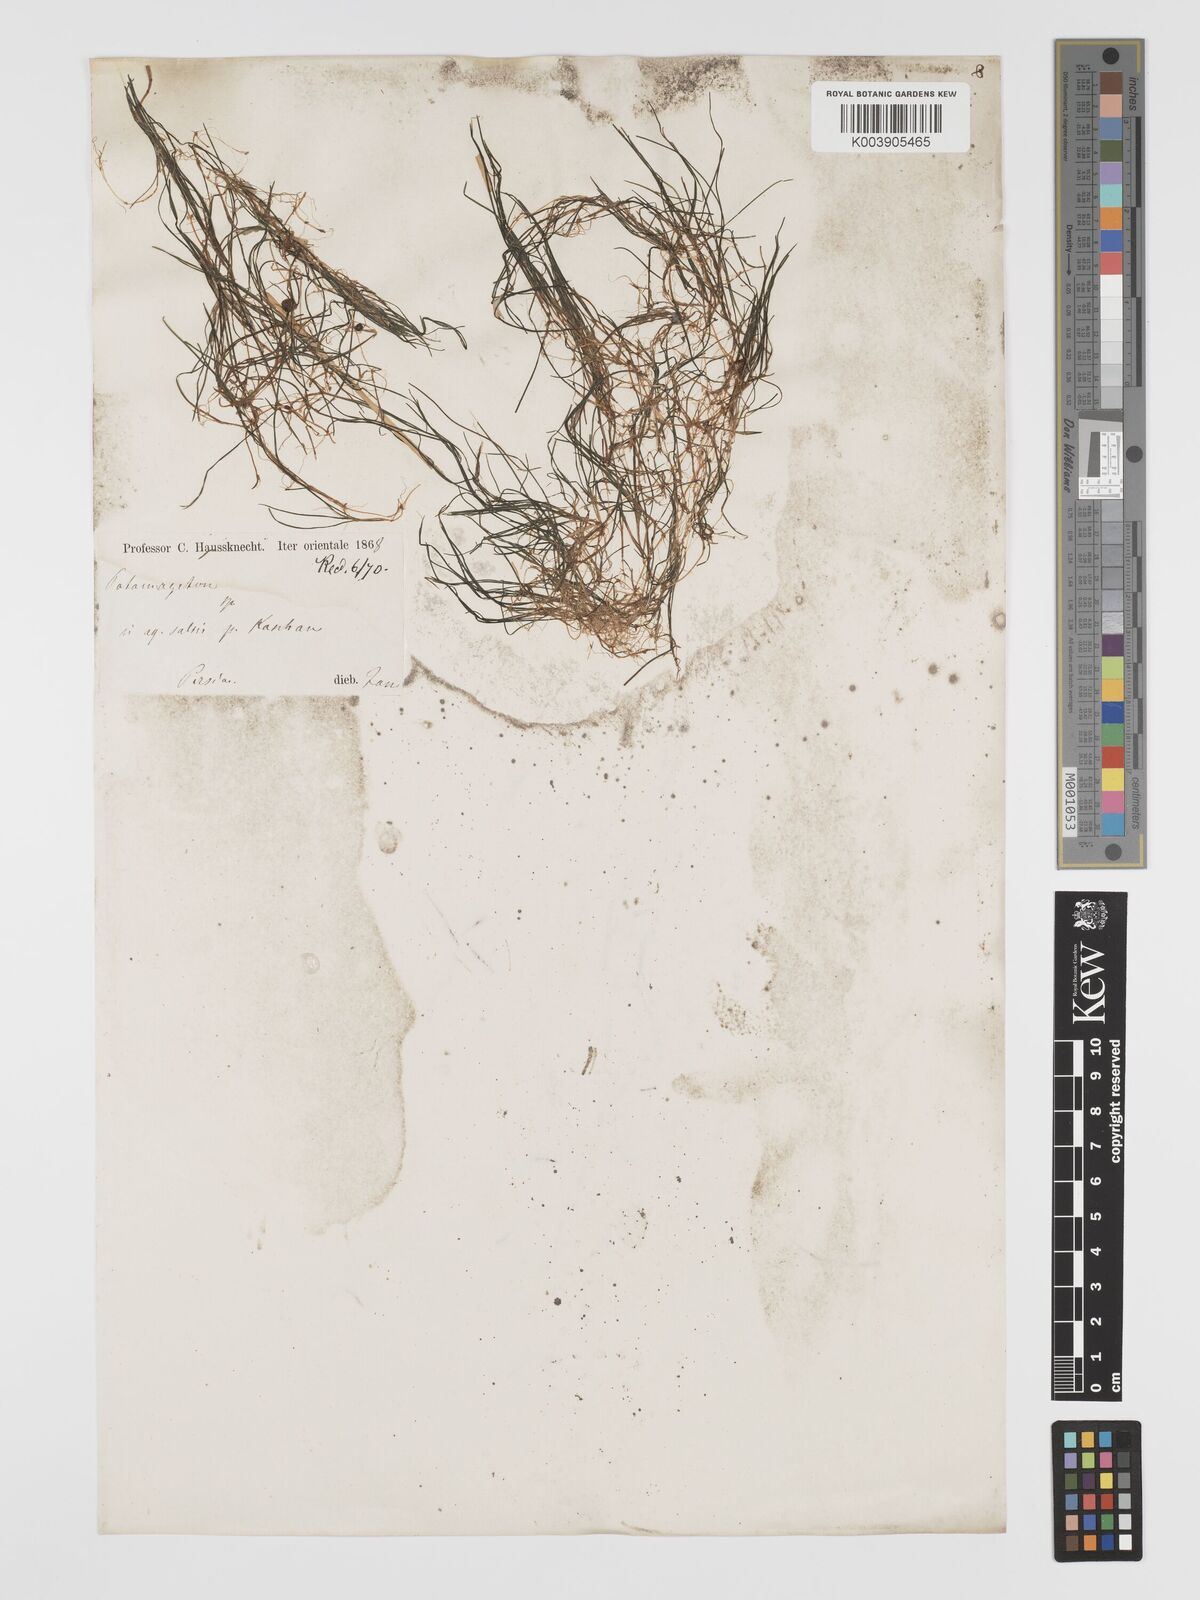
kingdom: Plantae
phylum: Tracheophyta
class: Liliopsida
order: Alismatales
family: Potamogetonaceae
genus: Potamogeton
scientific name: Potamogeton
